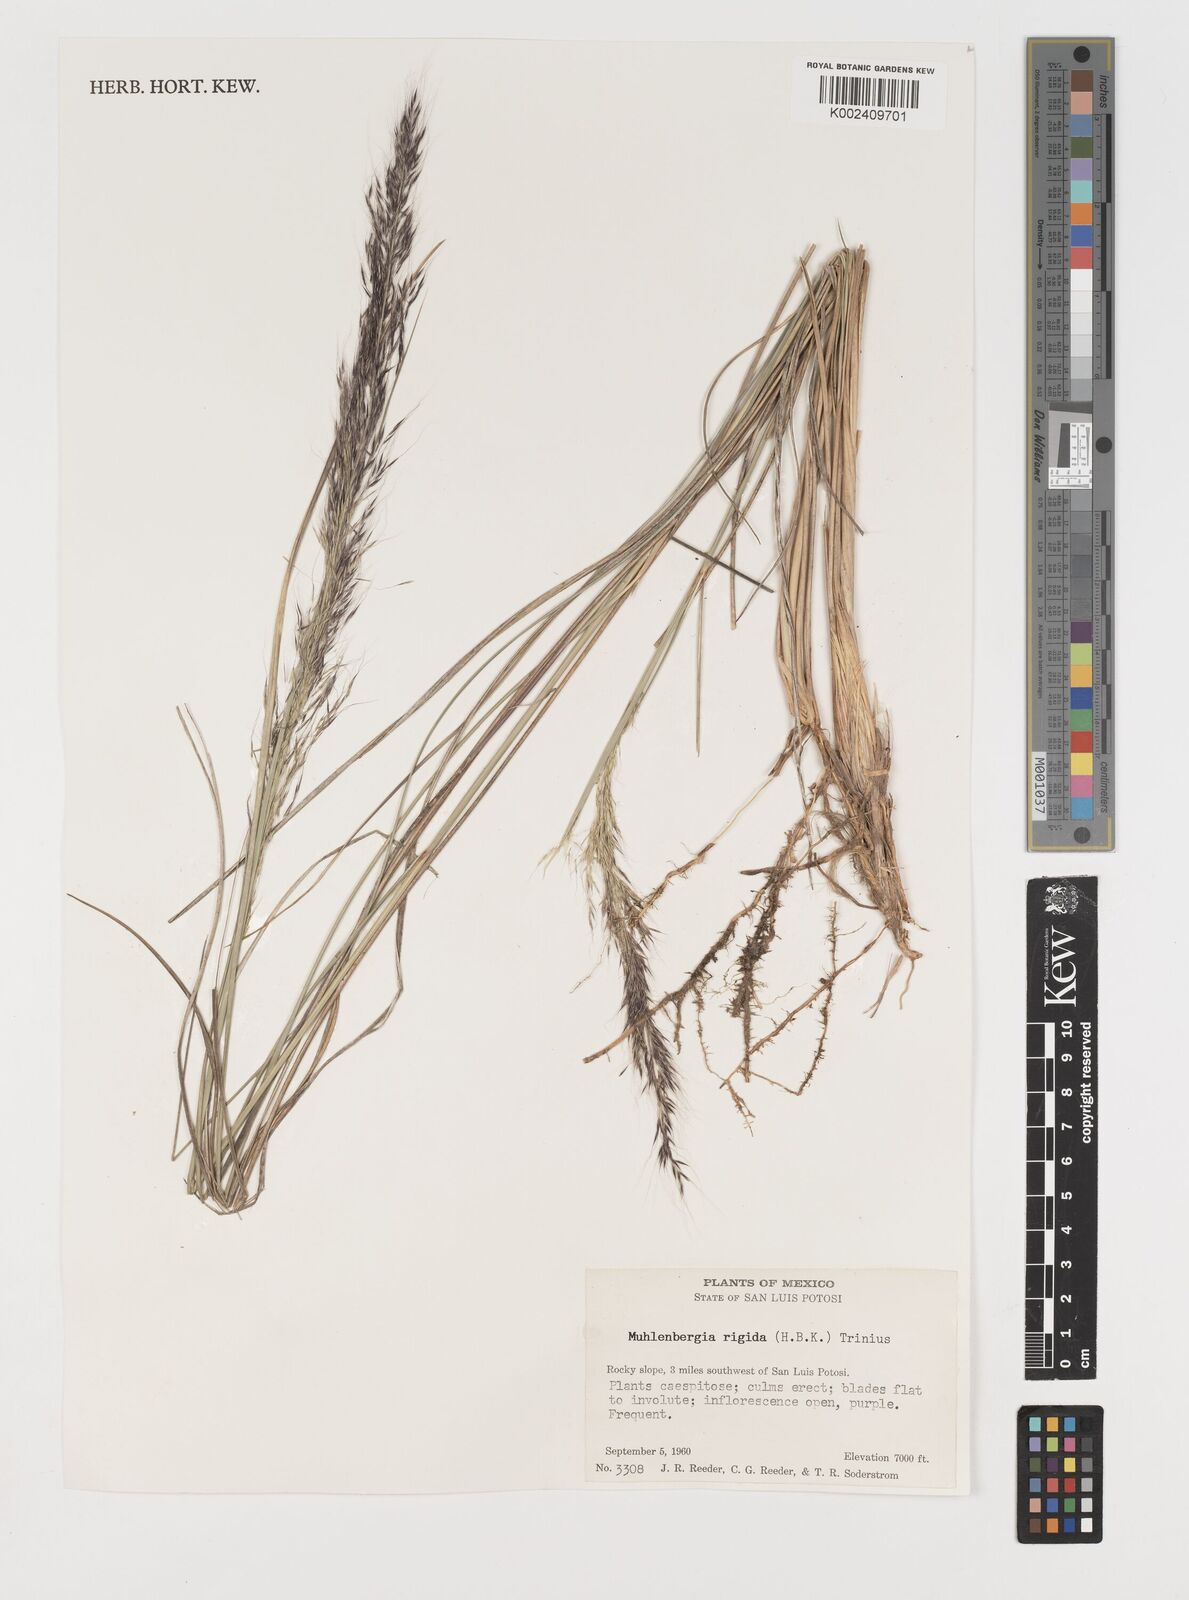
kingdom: Plantae
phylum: Tracheophyta
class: Liliopsida
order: Poales
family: Poaceae
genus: Muhlenbergia
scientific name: Muhlenbergia rigida
